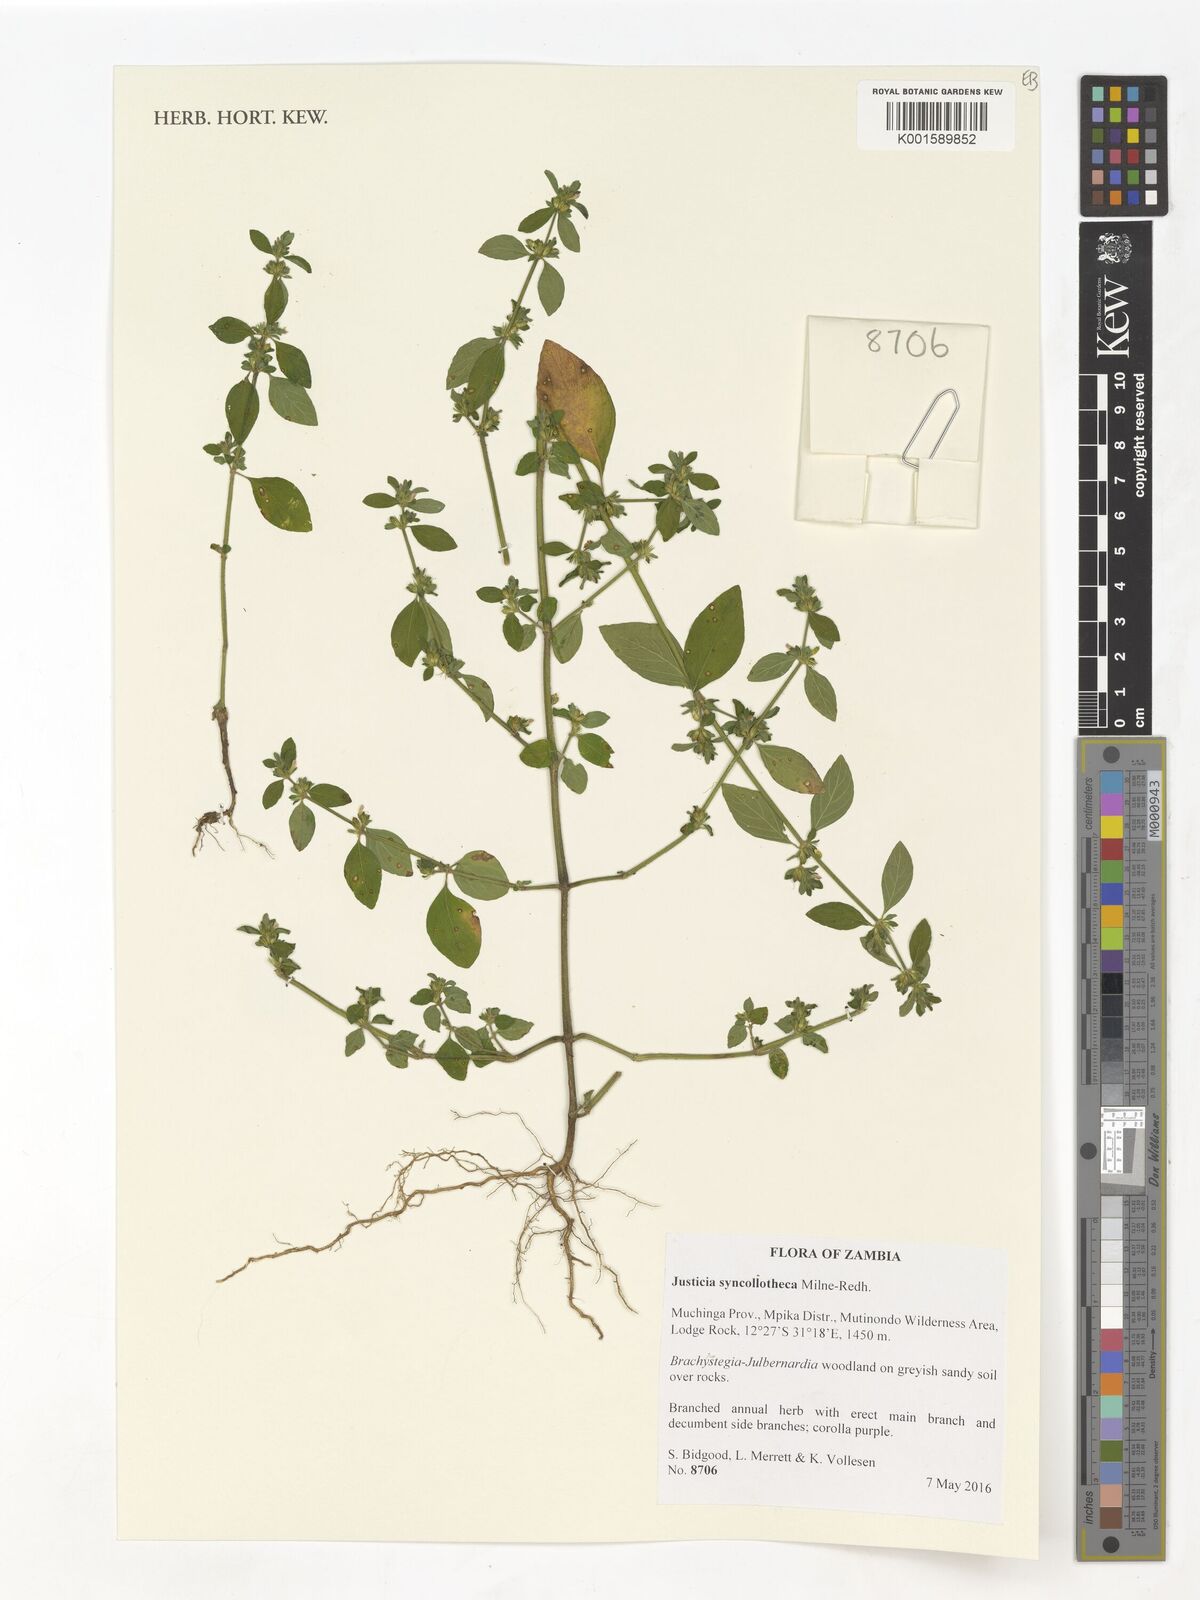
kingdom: Plantae
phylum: Tracheophyta
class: Magnoliopsida
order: Lamiales
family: Acanthaceae
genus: Justicia
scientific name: Justicia syncollotheca
